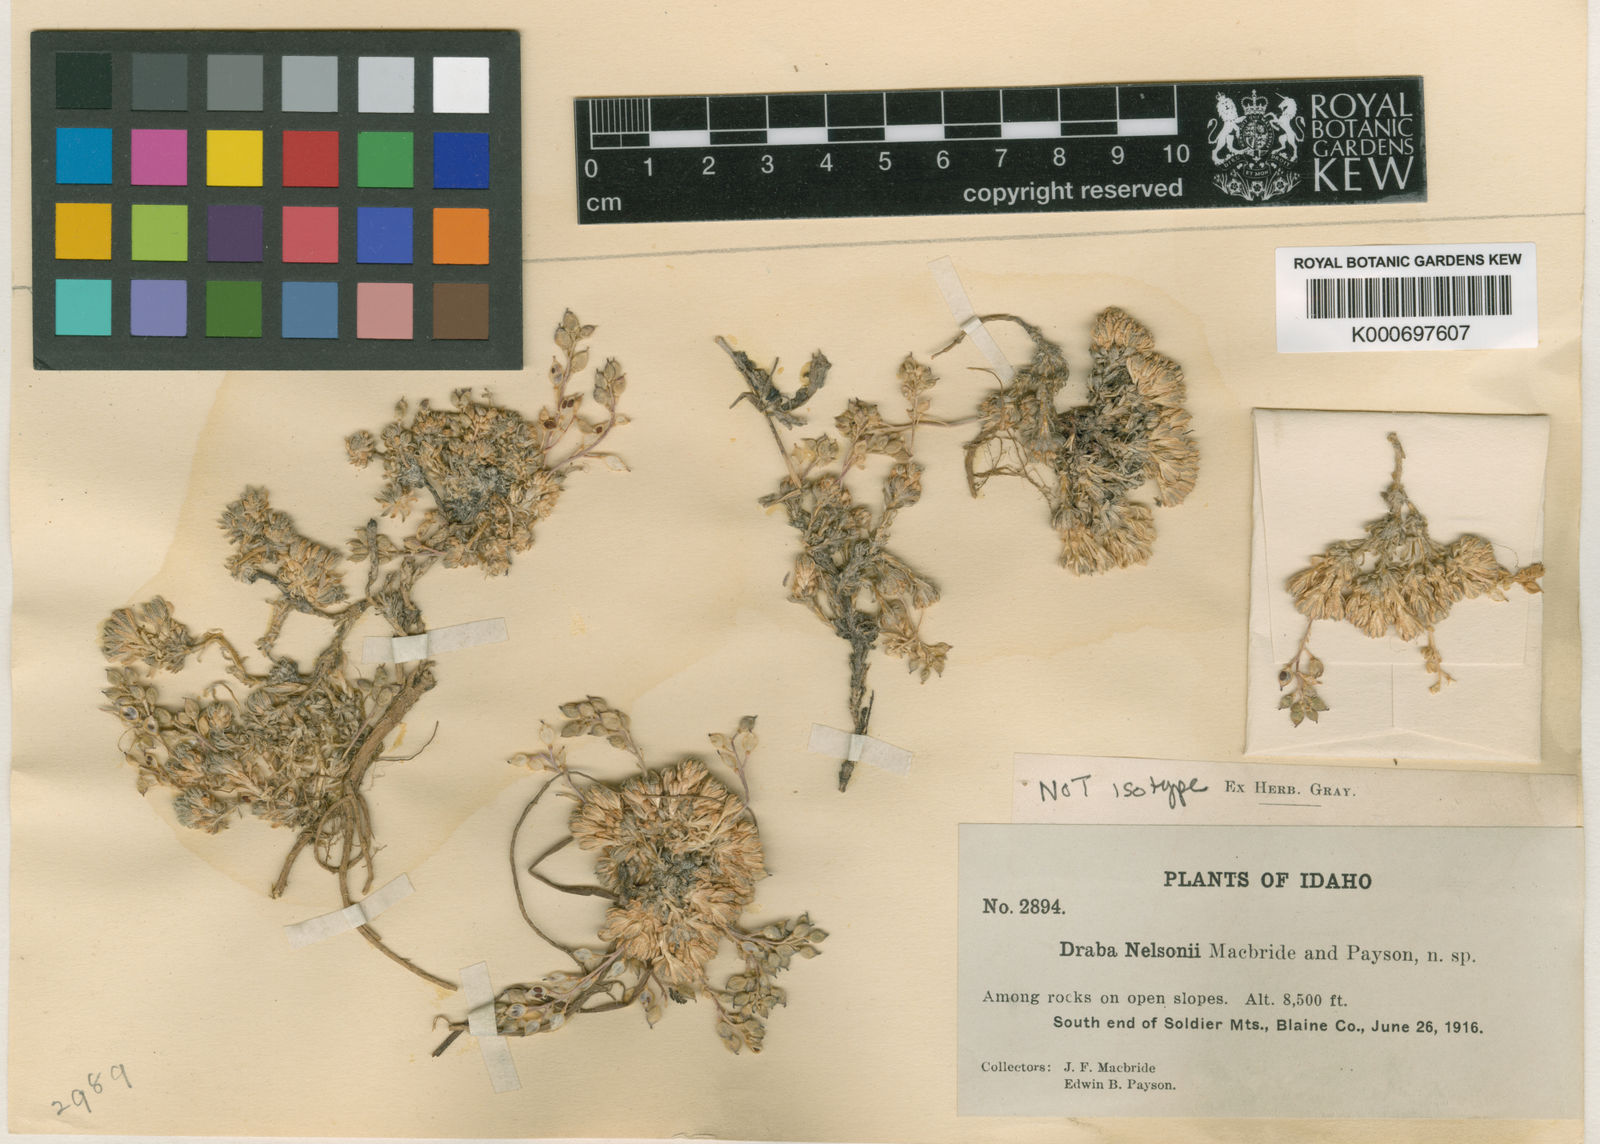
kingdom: Plantae
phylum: Tracheophyta
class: Magnoliopsida
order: Brassicales
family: Brassicaceae
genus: Draba
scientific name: Draba densifolia
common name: Nuttall's draba
